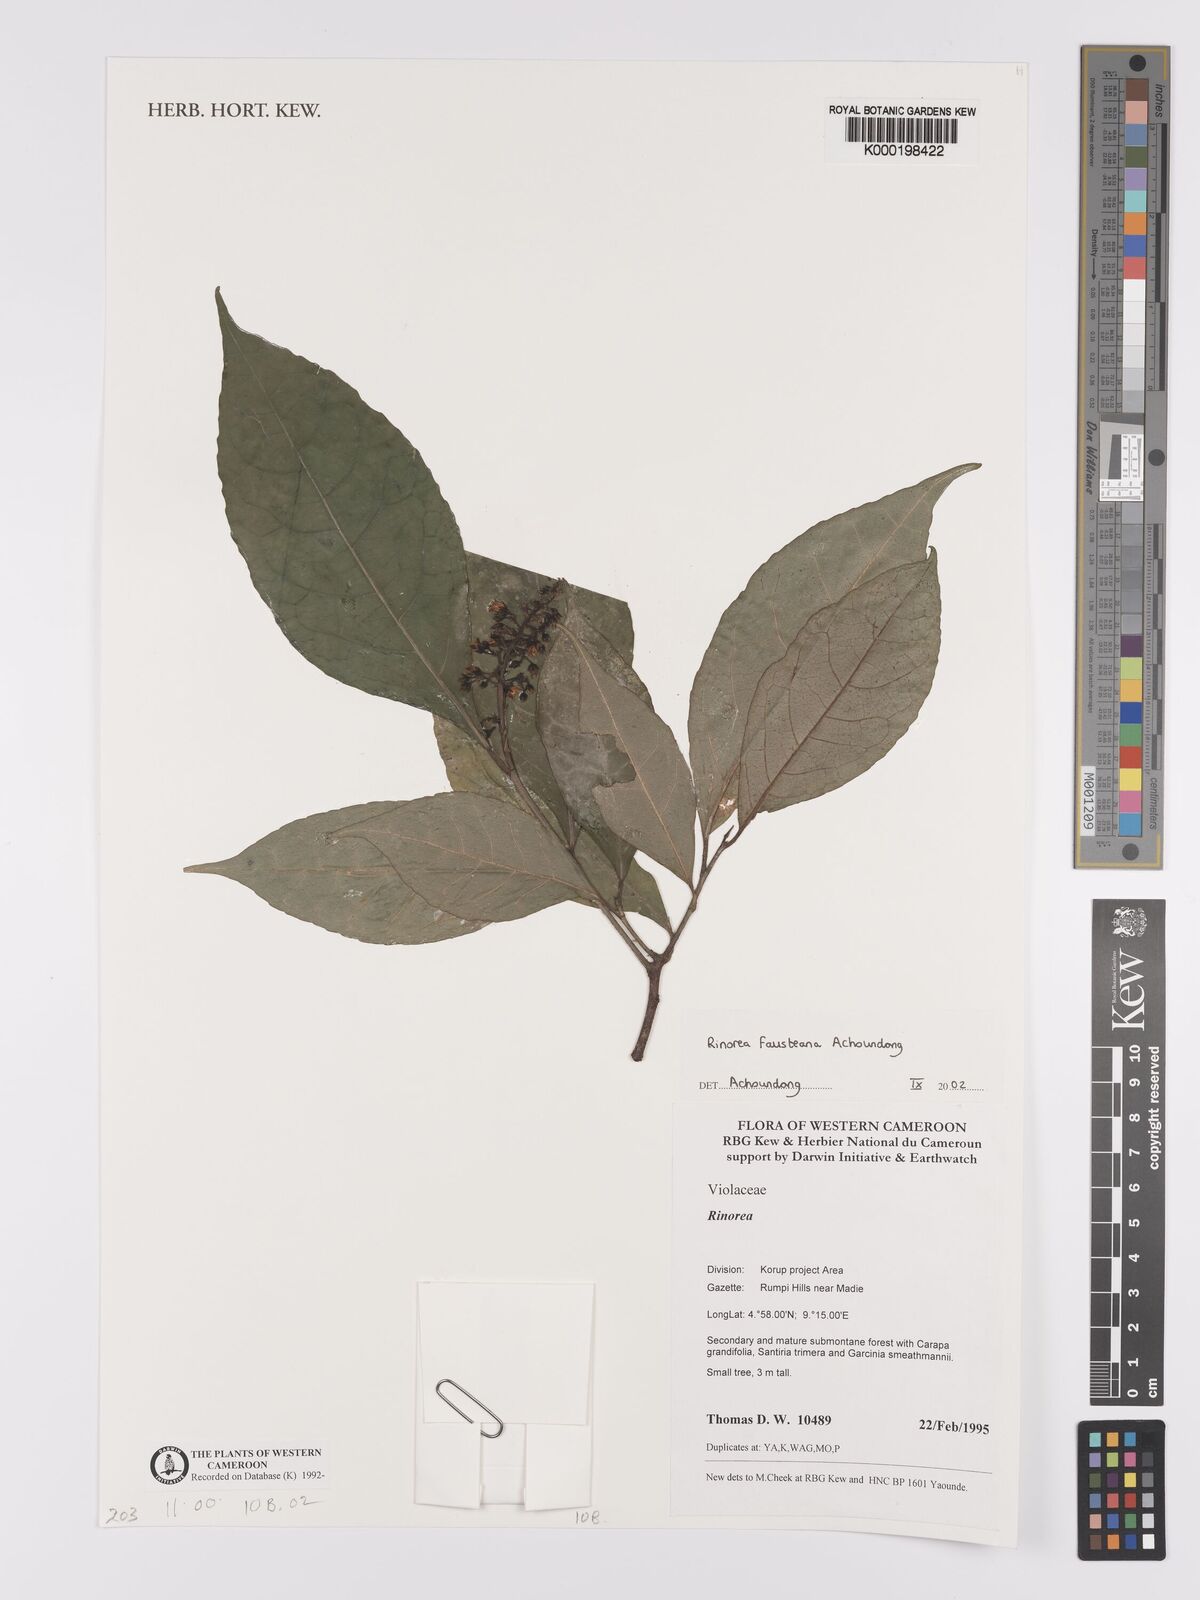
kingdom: Plantae
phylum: Tracheophyta
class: Magnoliopsida
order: Malpighiales
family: Violaceae
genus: Rinorea
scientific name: Rinorea fausteana
